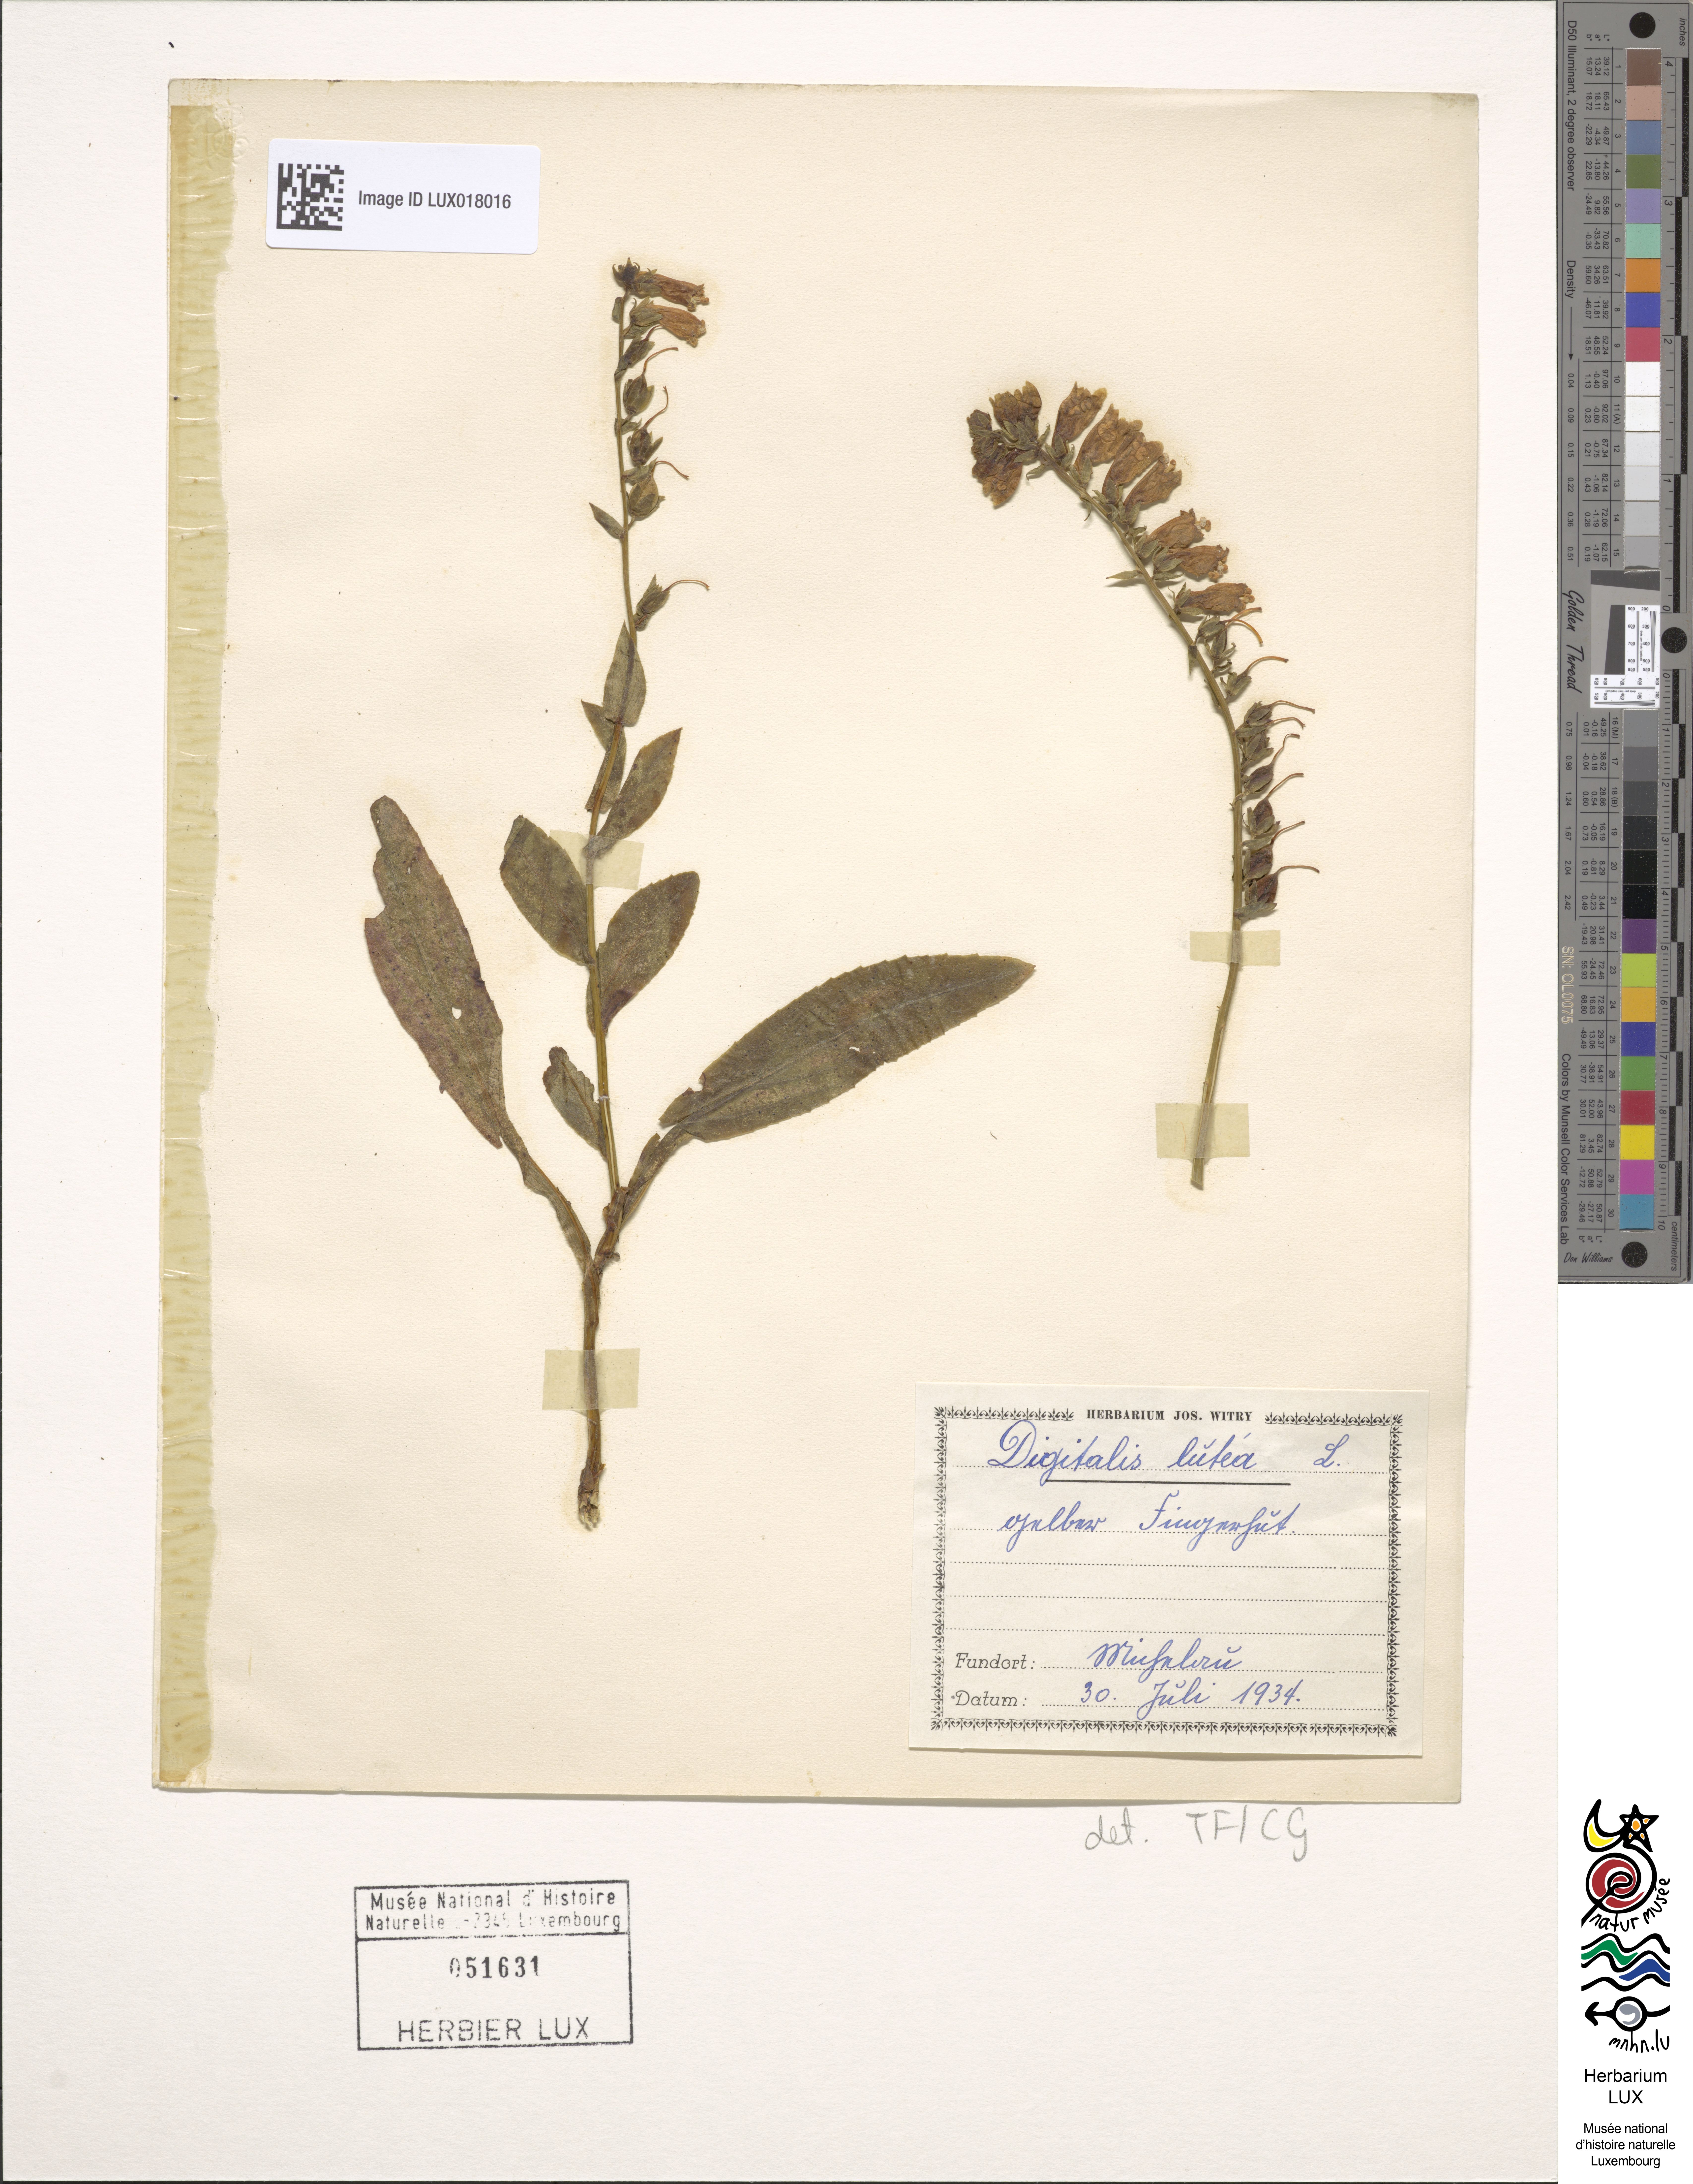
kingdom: Plantae
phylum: Tracheophyta
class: Magnoliopsida
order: Lamiales
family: Plantaginaceae
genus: Digitalis
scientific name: Digitalis lutea
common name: Straw foxglove
